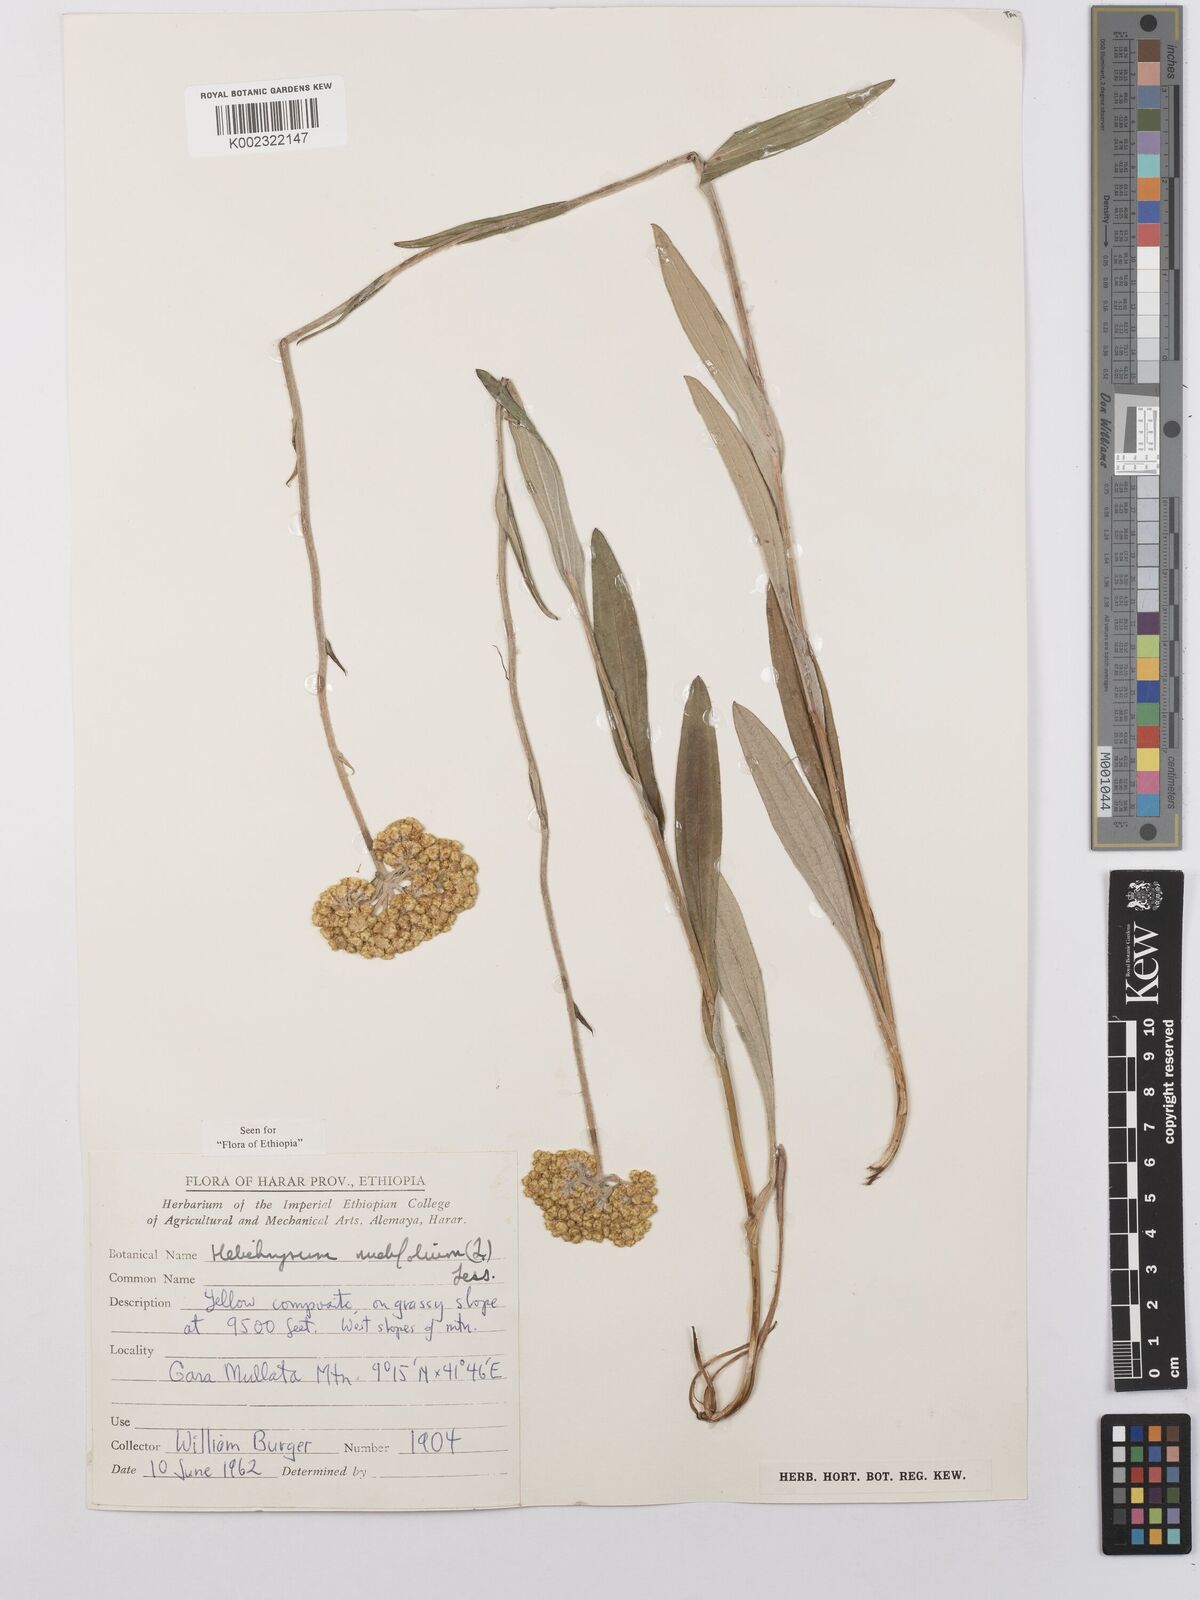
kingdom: Plantae
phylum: Tracheophyta
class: Magnoliopsida
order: Asterales
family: Asteraceae
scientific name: Asteraceae
